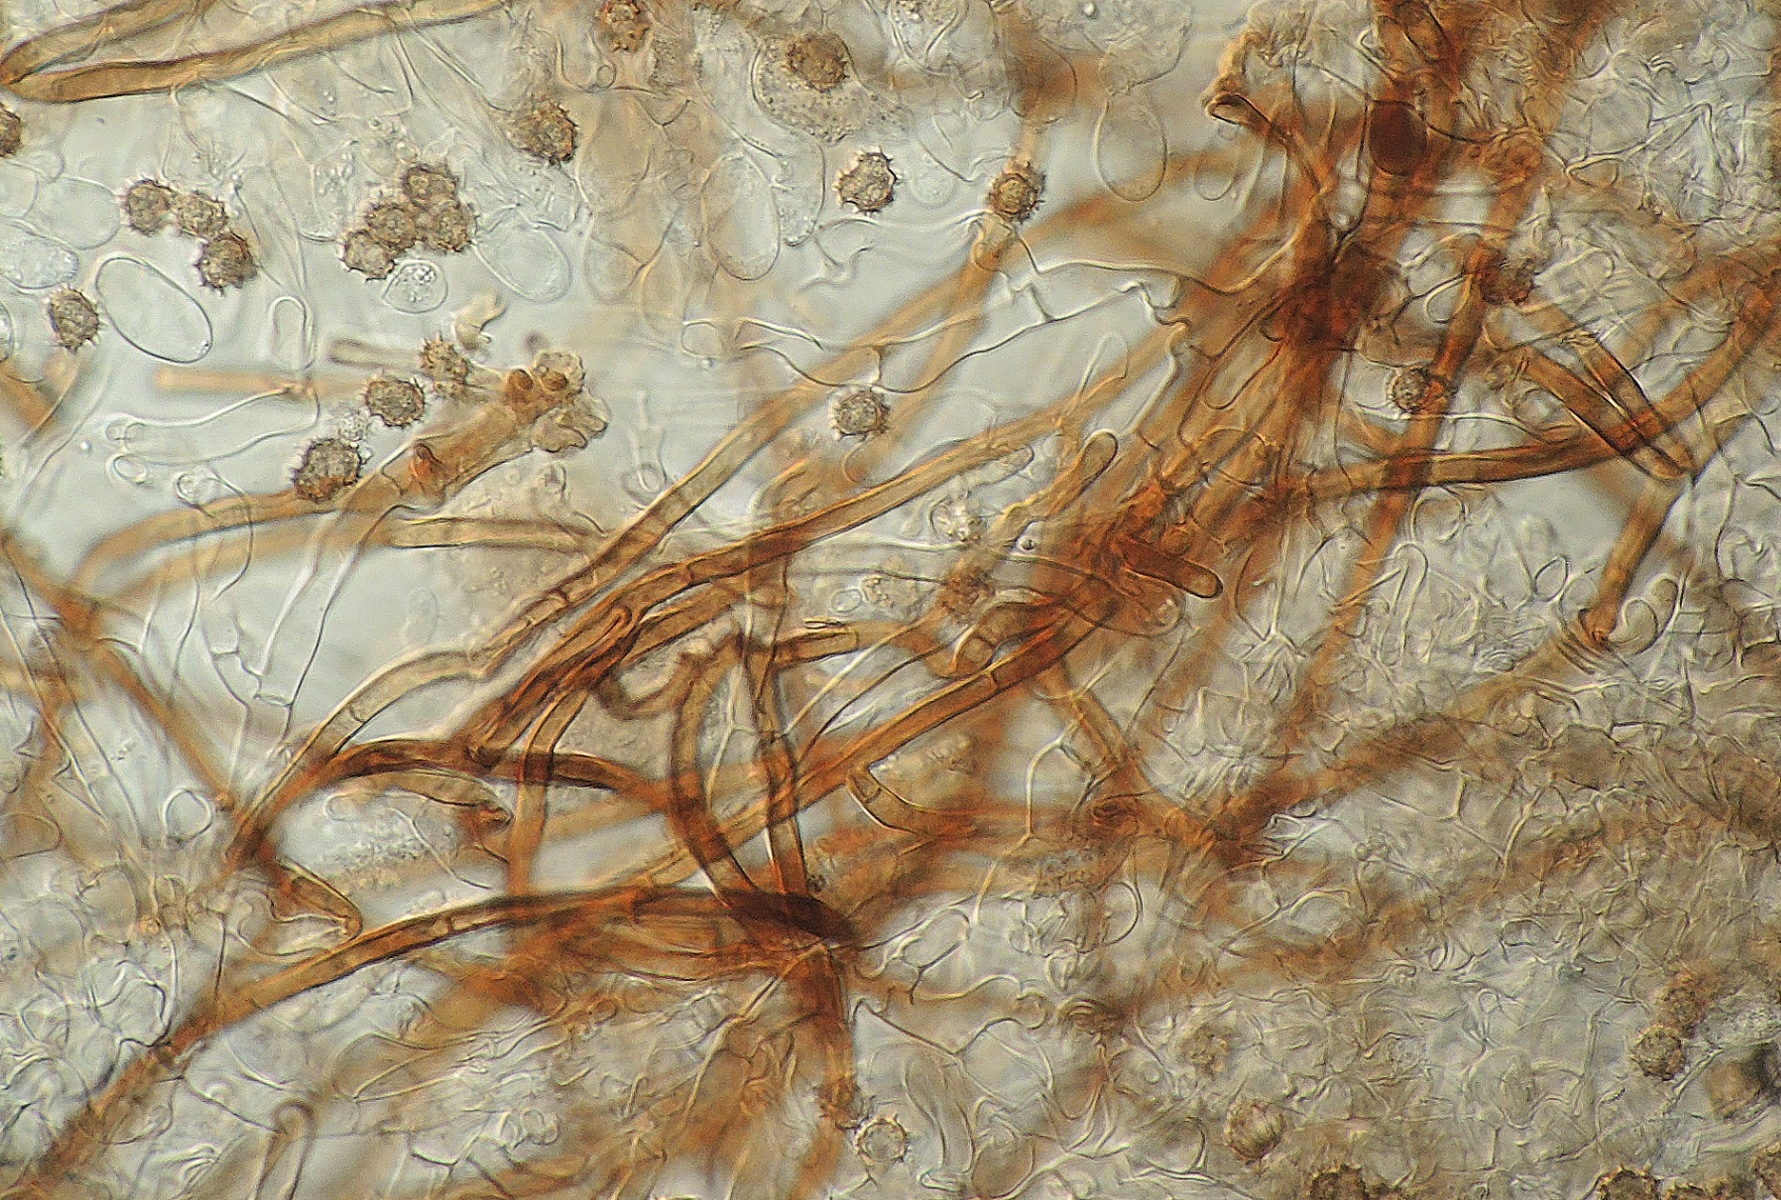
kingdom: Fungi
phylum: Basidiomycota
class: Agaricomycetes
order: Thelephorales
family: Thelephoraceae
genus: Tomentella
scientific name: Tomentella
